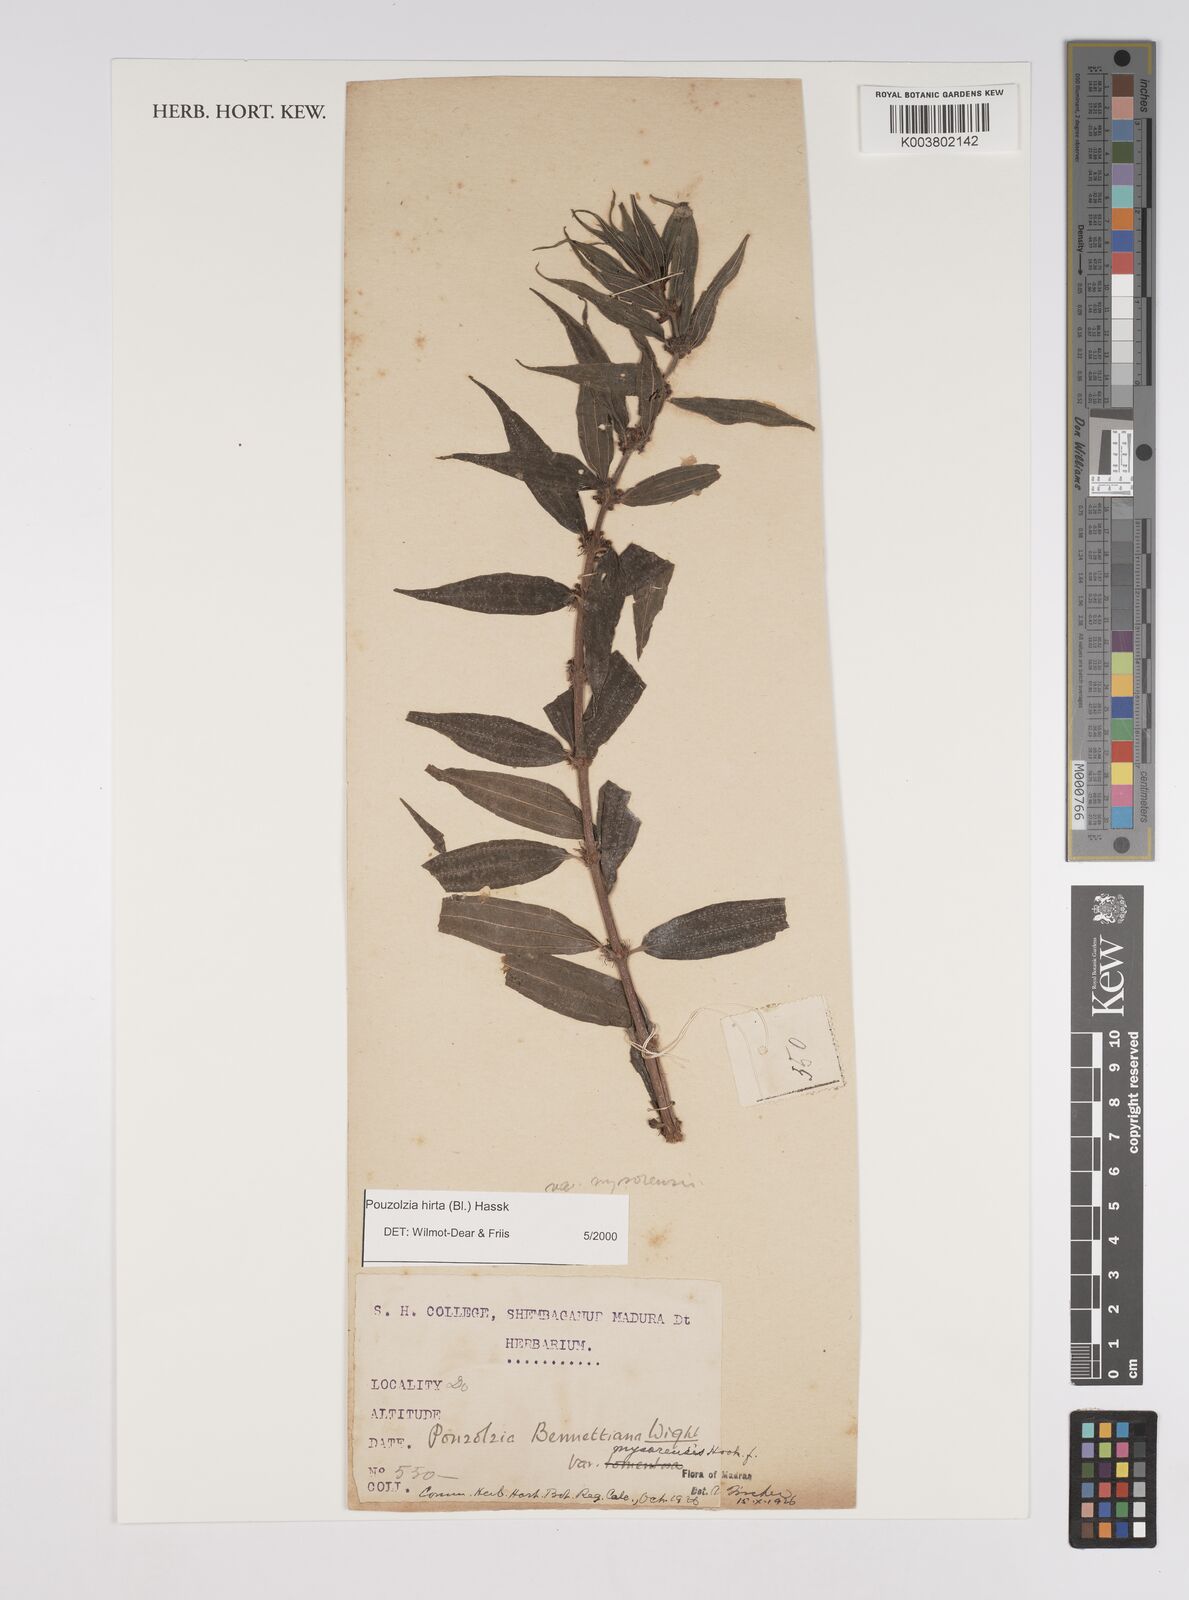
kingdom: Plantae
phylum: Tracheophyta
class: Magnoliopsida
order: Rosales
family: Urticaceae
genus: Gonostegia
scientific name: Gonostegia triandra
